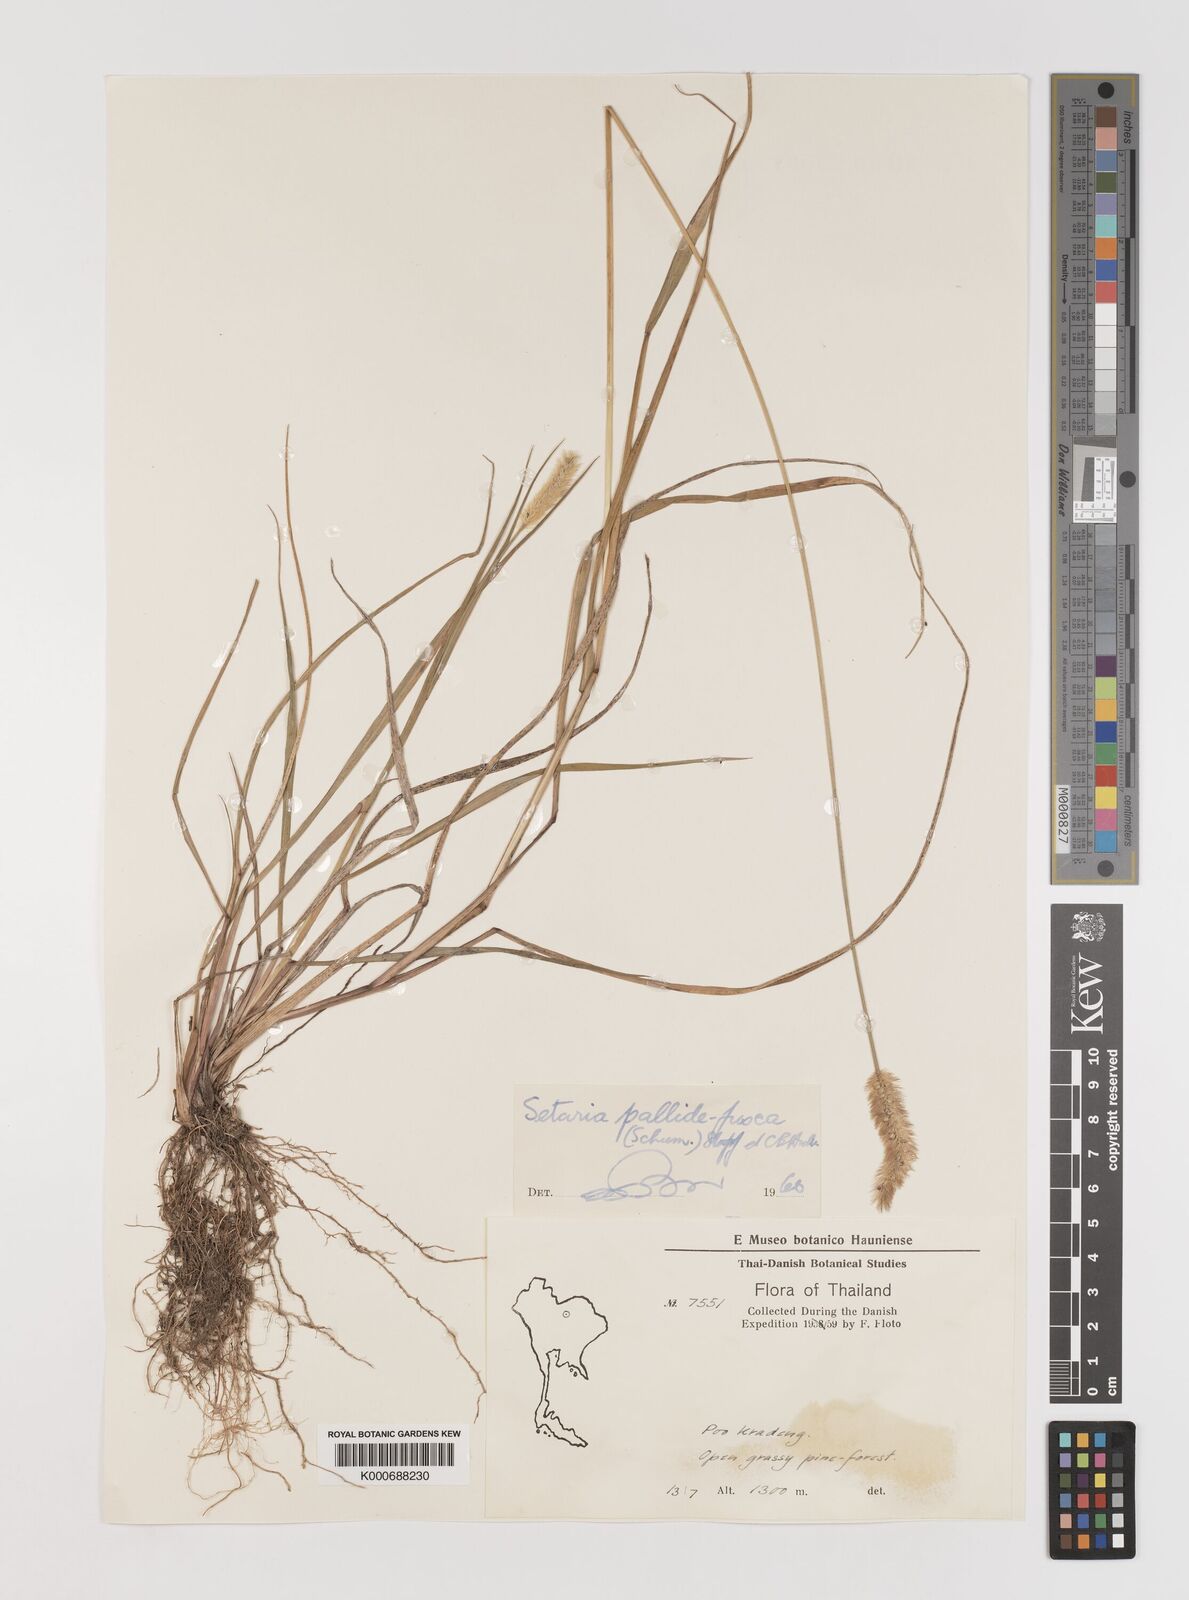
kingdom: Plantae
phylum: Tracheophyta
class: Liliopsida
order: Poales
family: Poaceae
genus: Setaria
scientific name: Setaria pumila
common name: Yellow bristle-grass
